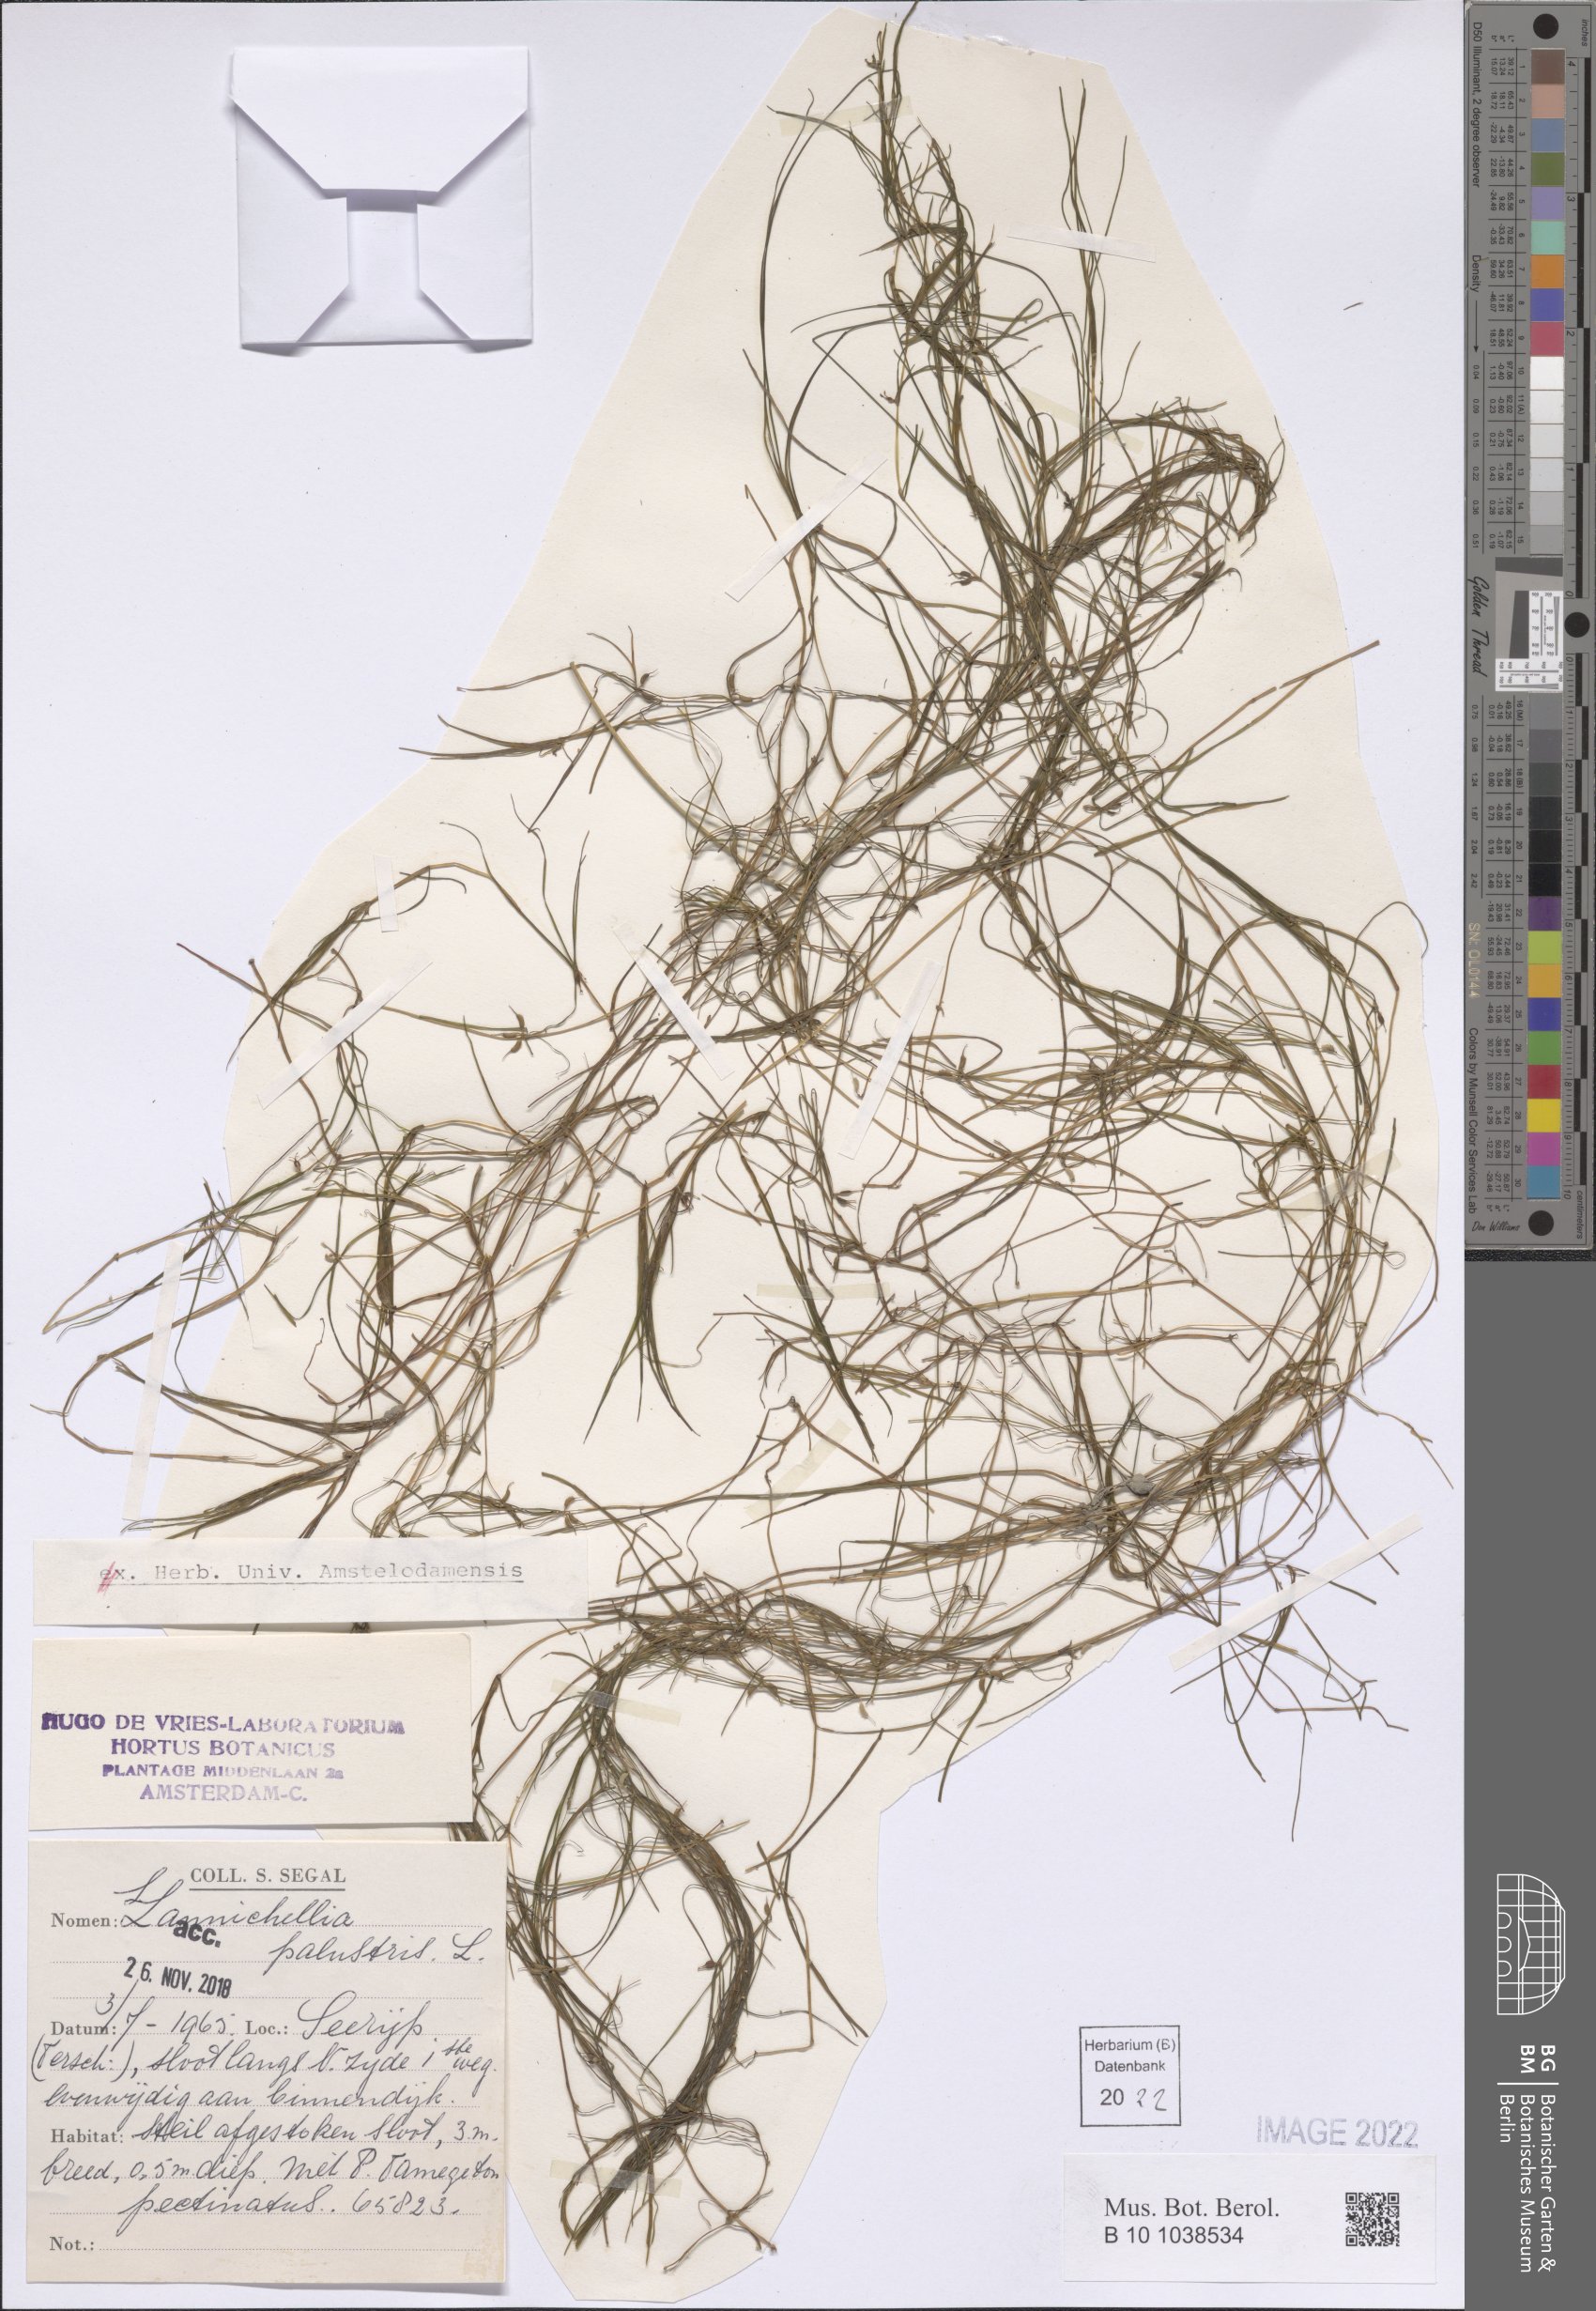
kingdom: Plantae
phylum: Tracheophyta
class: Liliopsida
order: Alismatales
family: Potamogetonaceae
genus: Zannichellia
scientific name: Zannichellia palustris
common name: Horned pondweed
